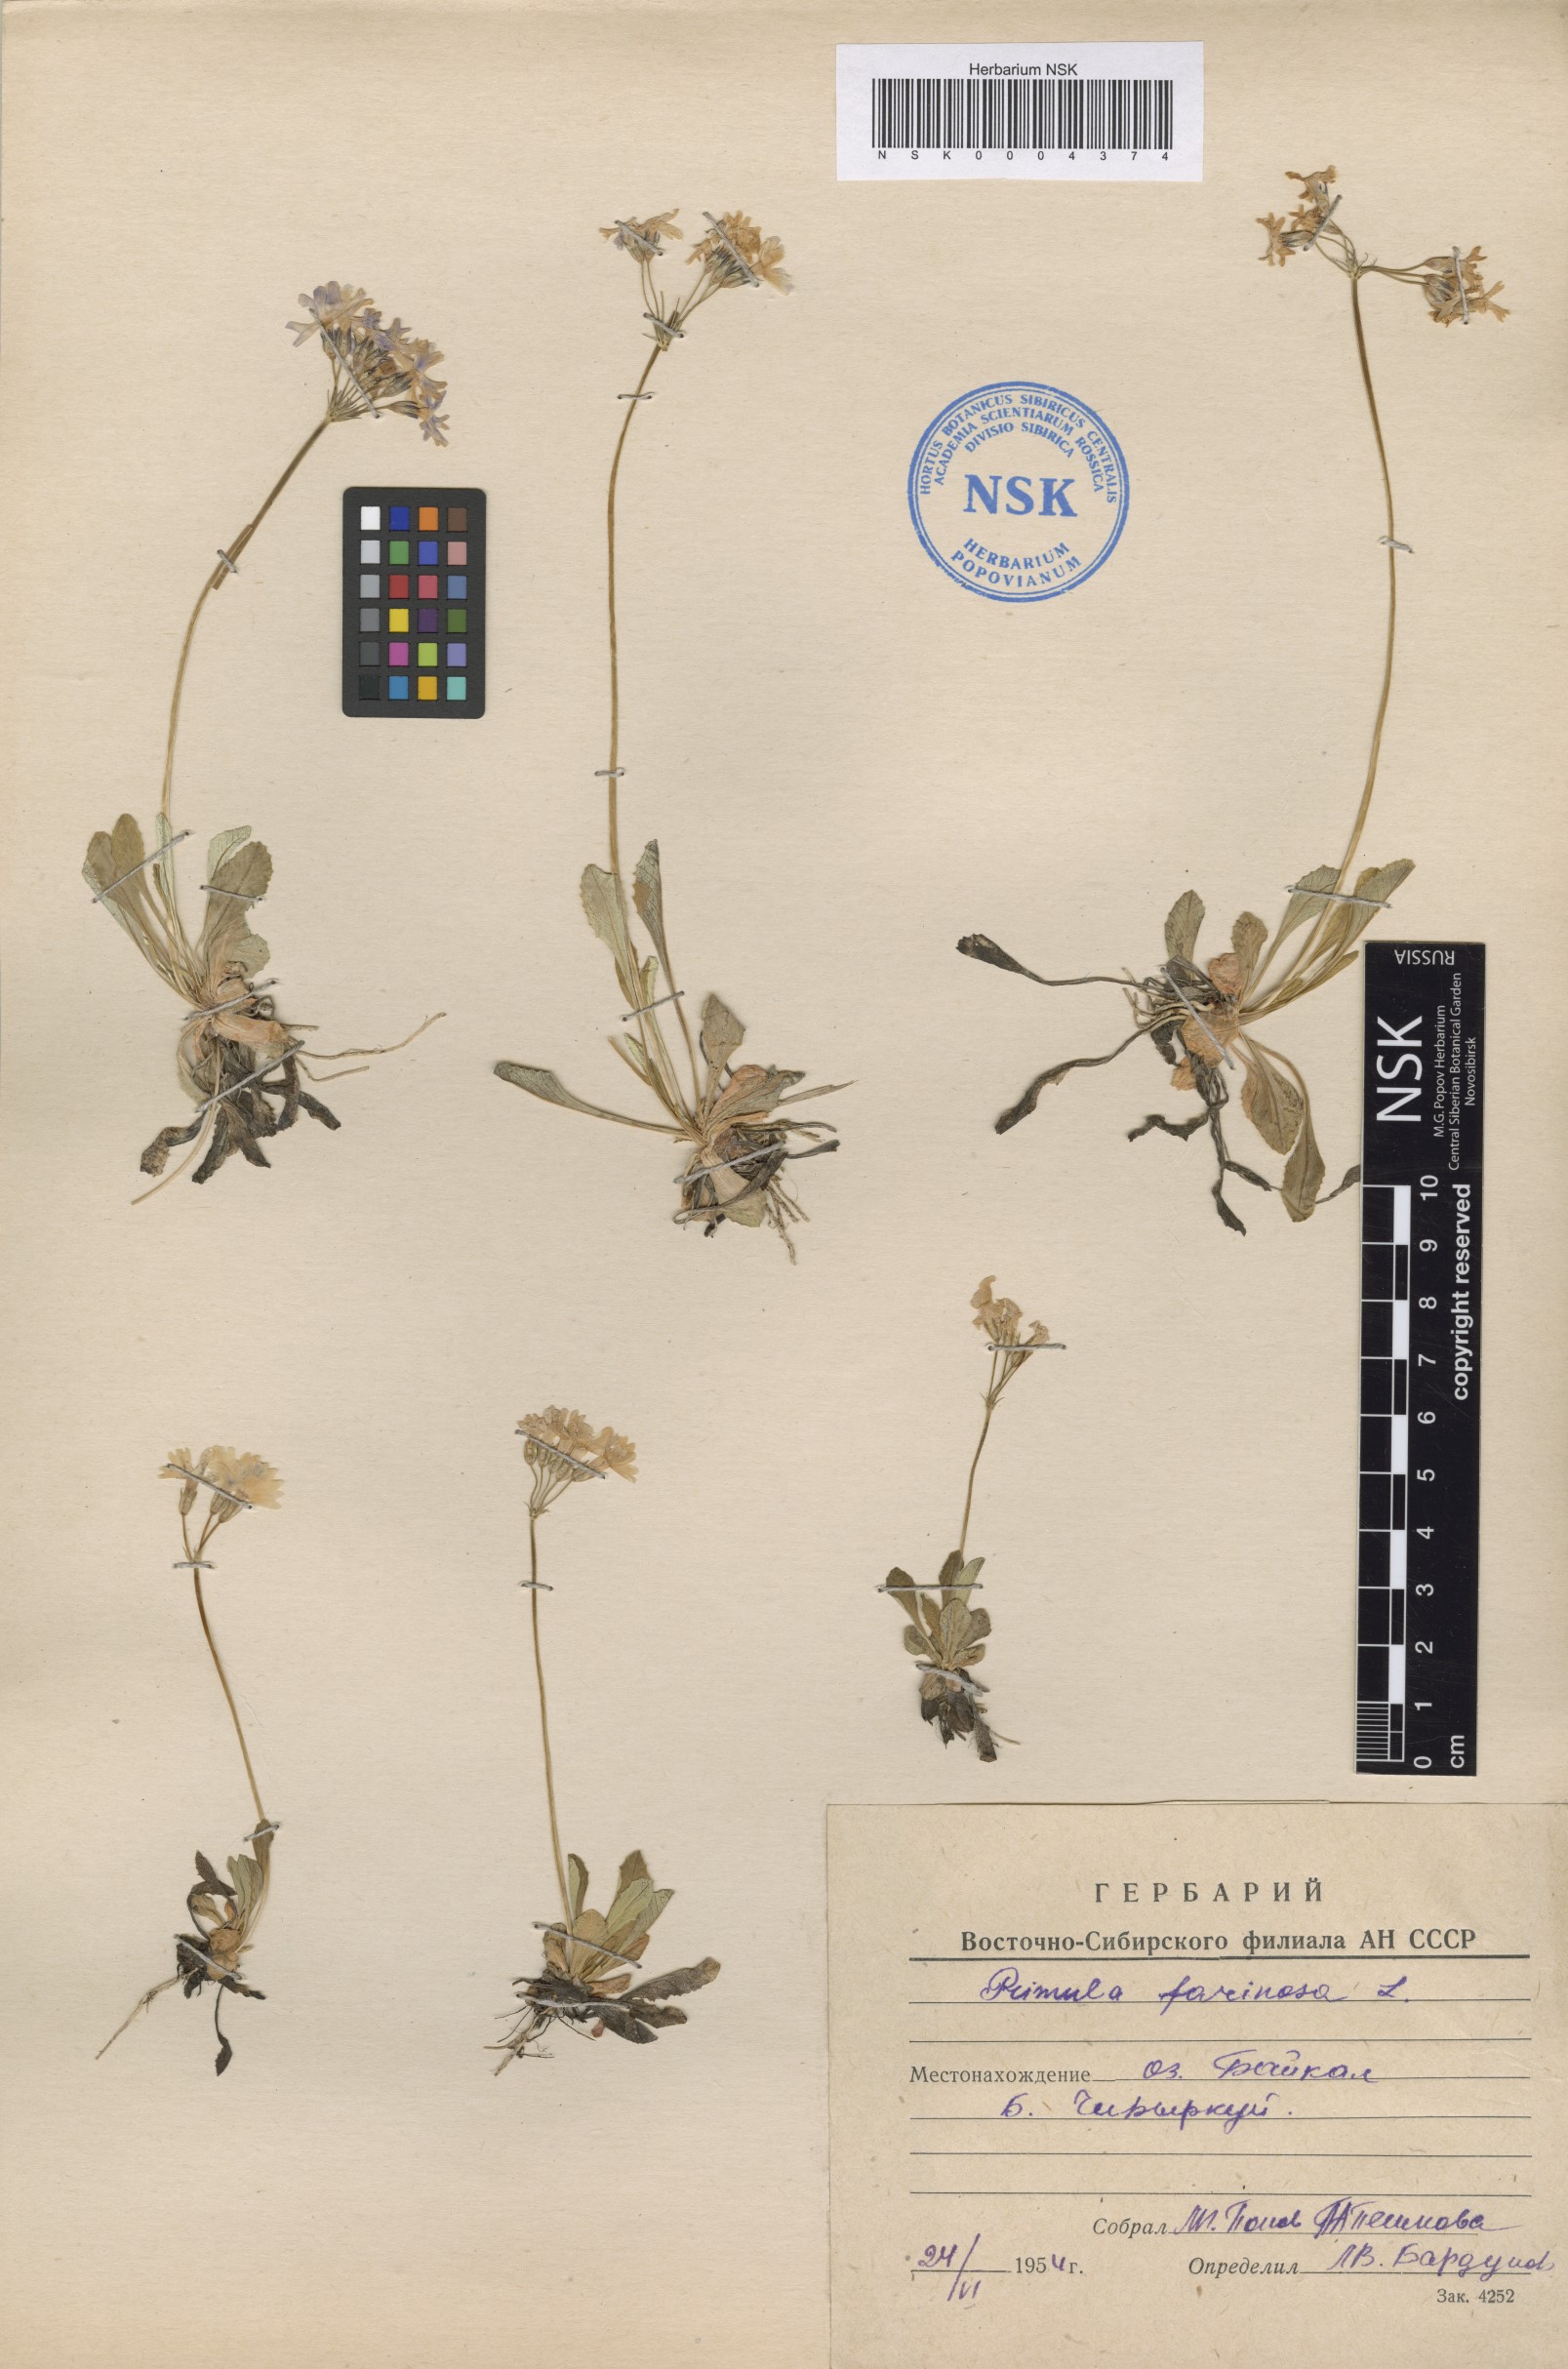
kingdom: Plantae
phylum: Tracheophyta
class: Magnoliopsida
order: Ericales
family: Primulaceae
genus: Primula
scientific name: Primula farinosa
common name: Bird's-eye primrose
